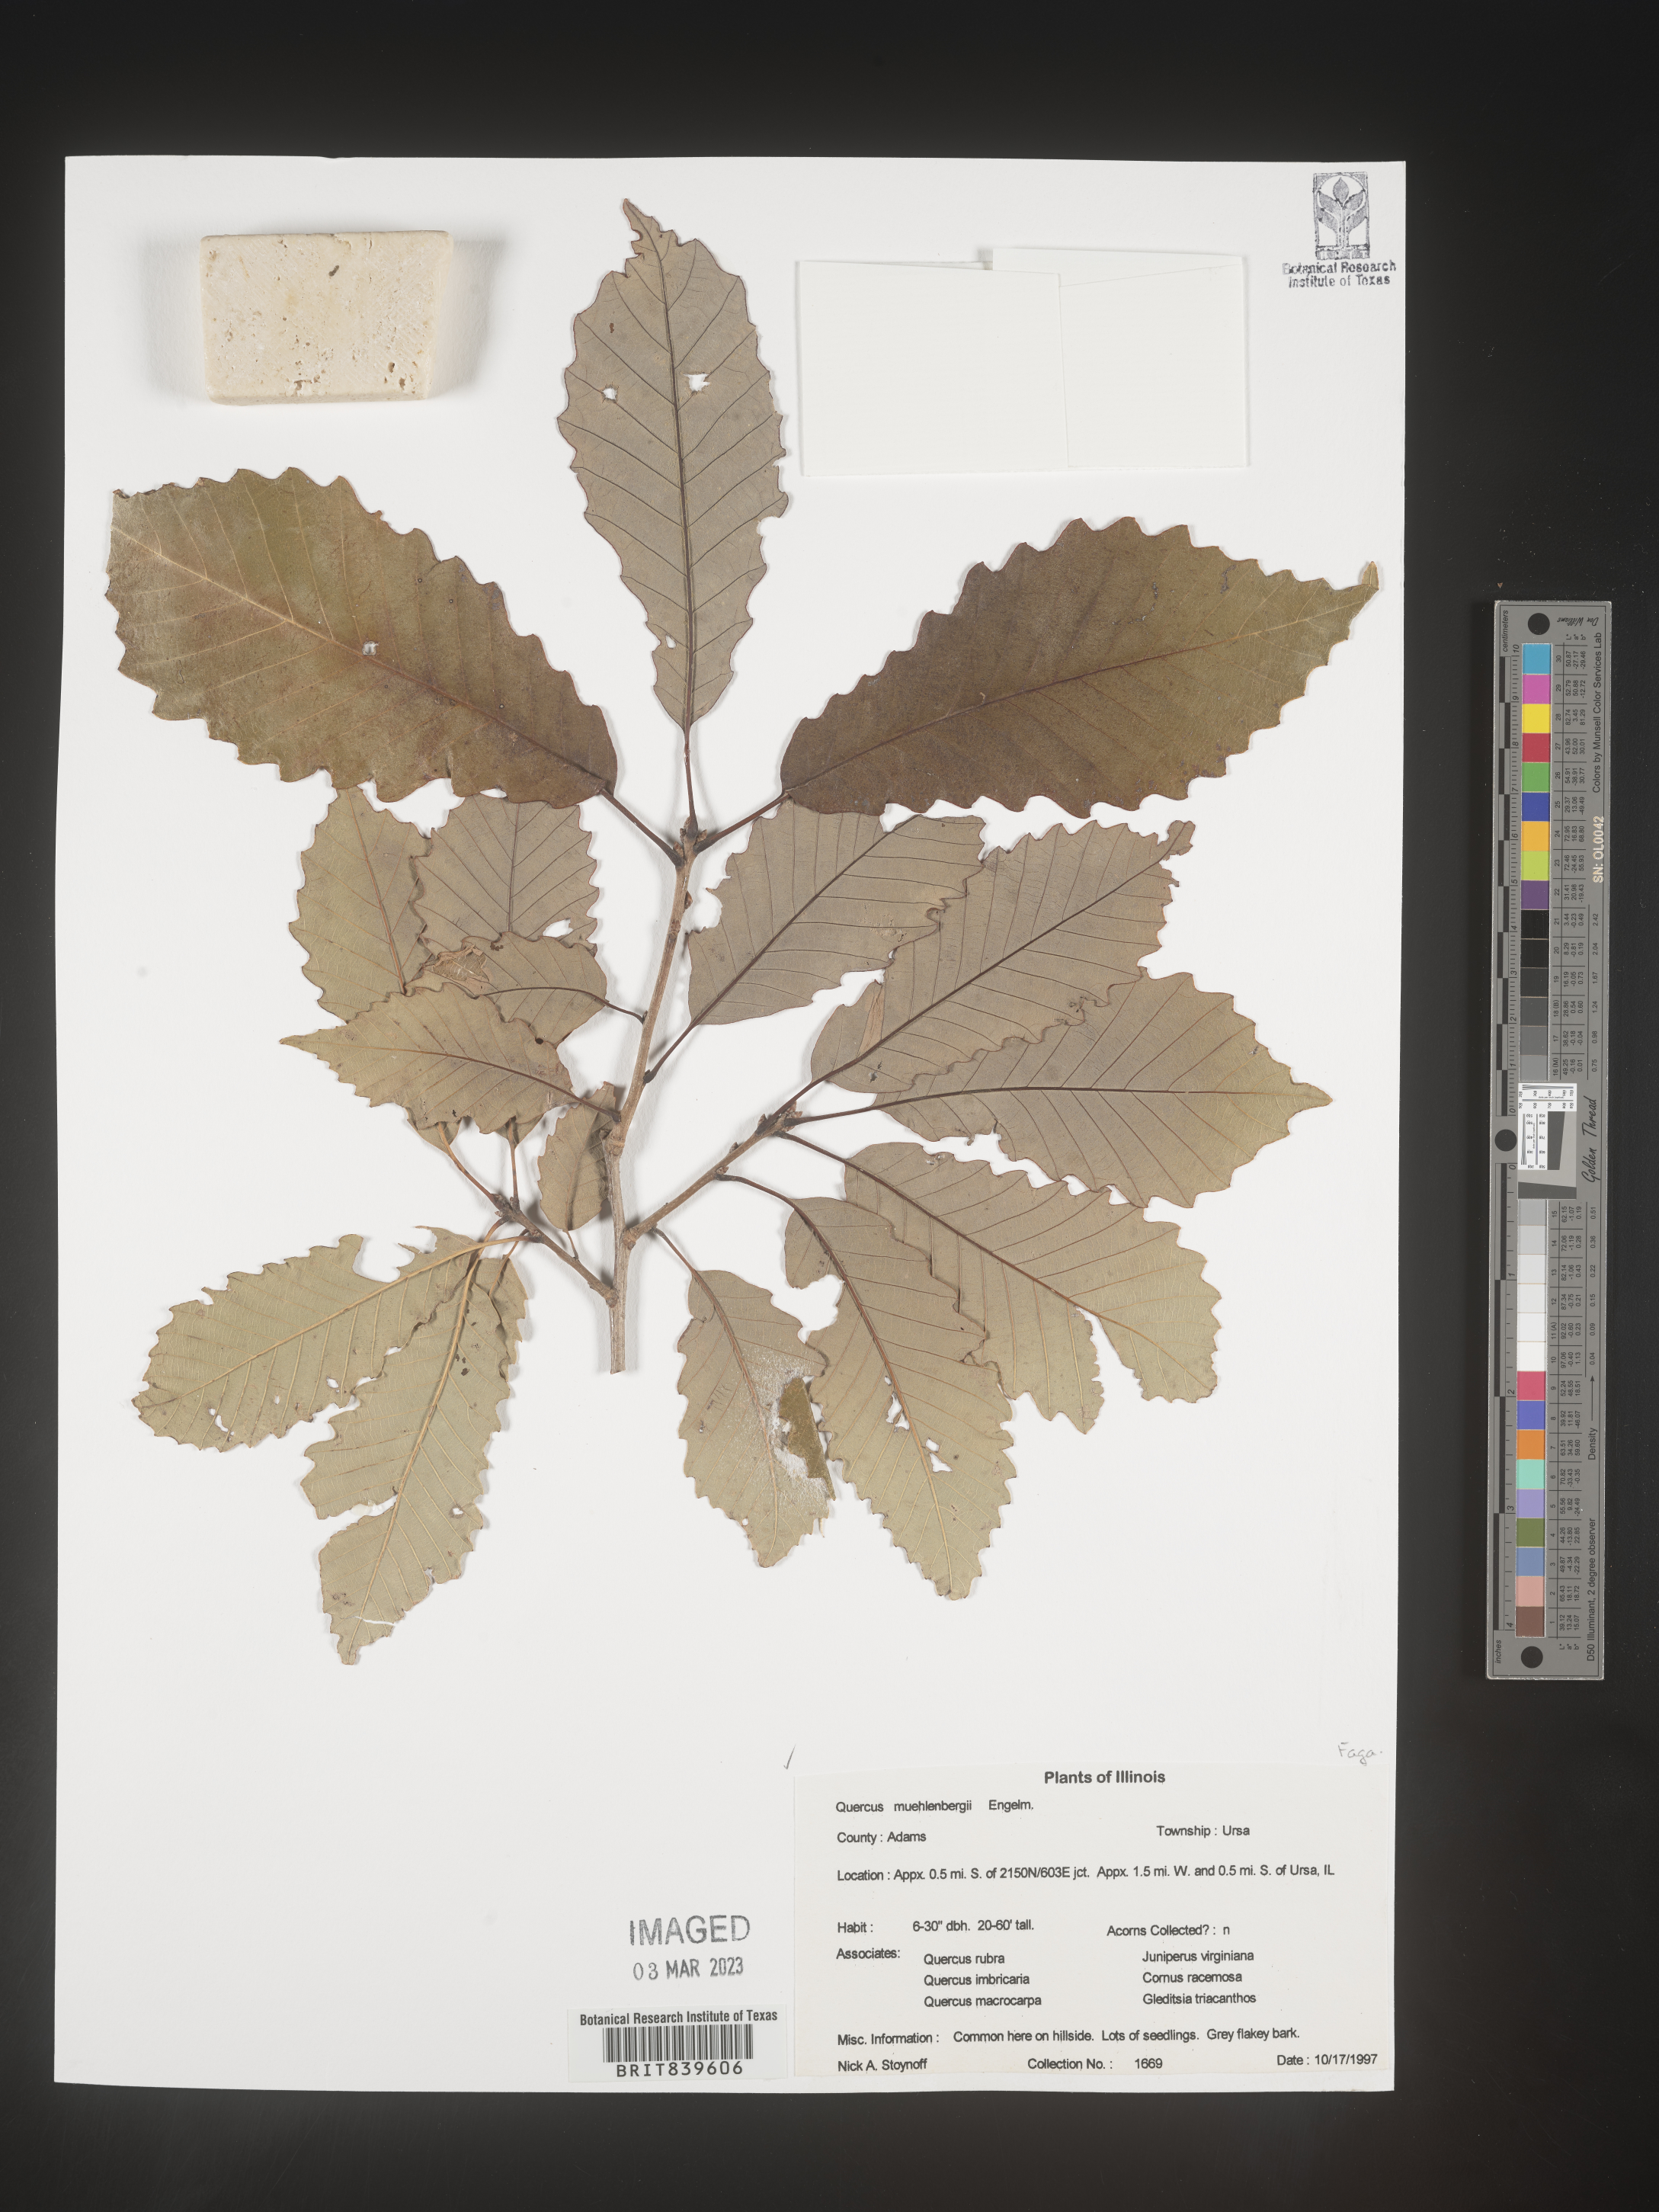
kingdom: Plantae
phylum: Tracheophyta
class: Magnoliopsida
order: Fagales
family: Fagaceae
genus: Quercus
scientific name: Quercus muehlenbergii
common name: Chinkapin oak
